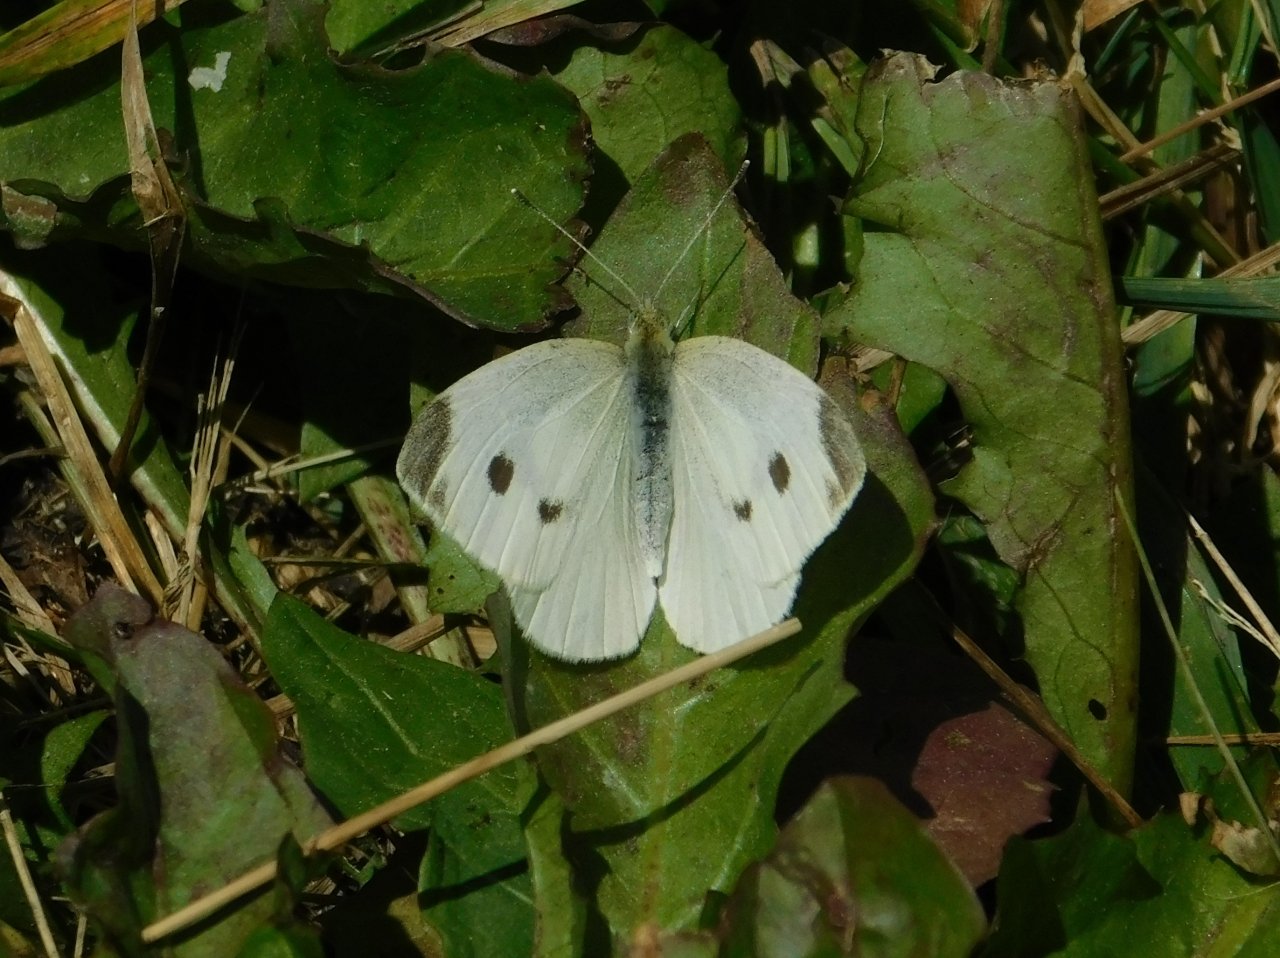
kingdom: Animalia
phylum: Arthropoda
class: Insecta
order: Lepidoptera
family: Pieridae
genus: Pieris
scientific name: Pieris rapae
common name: Cabbage White
